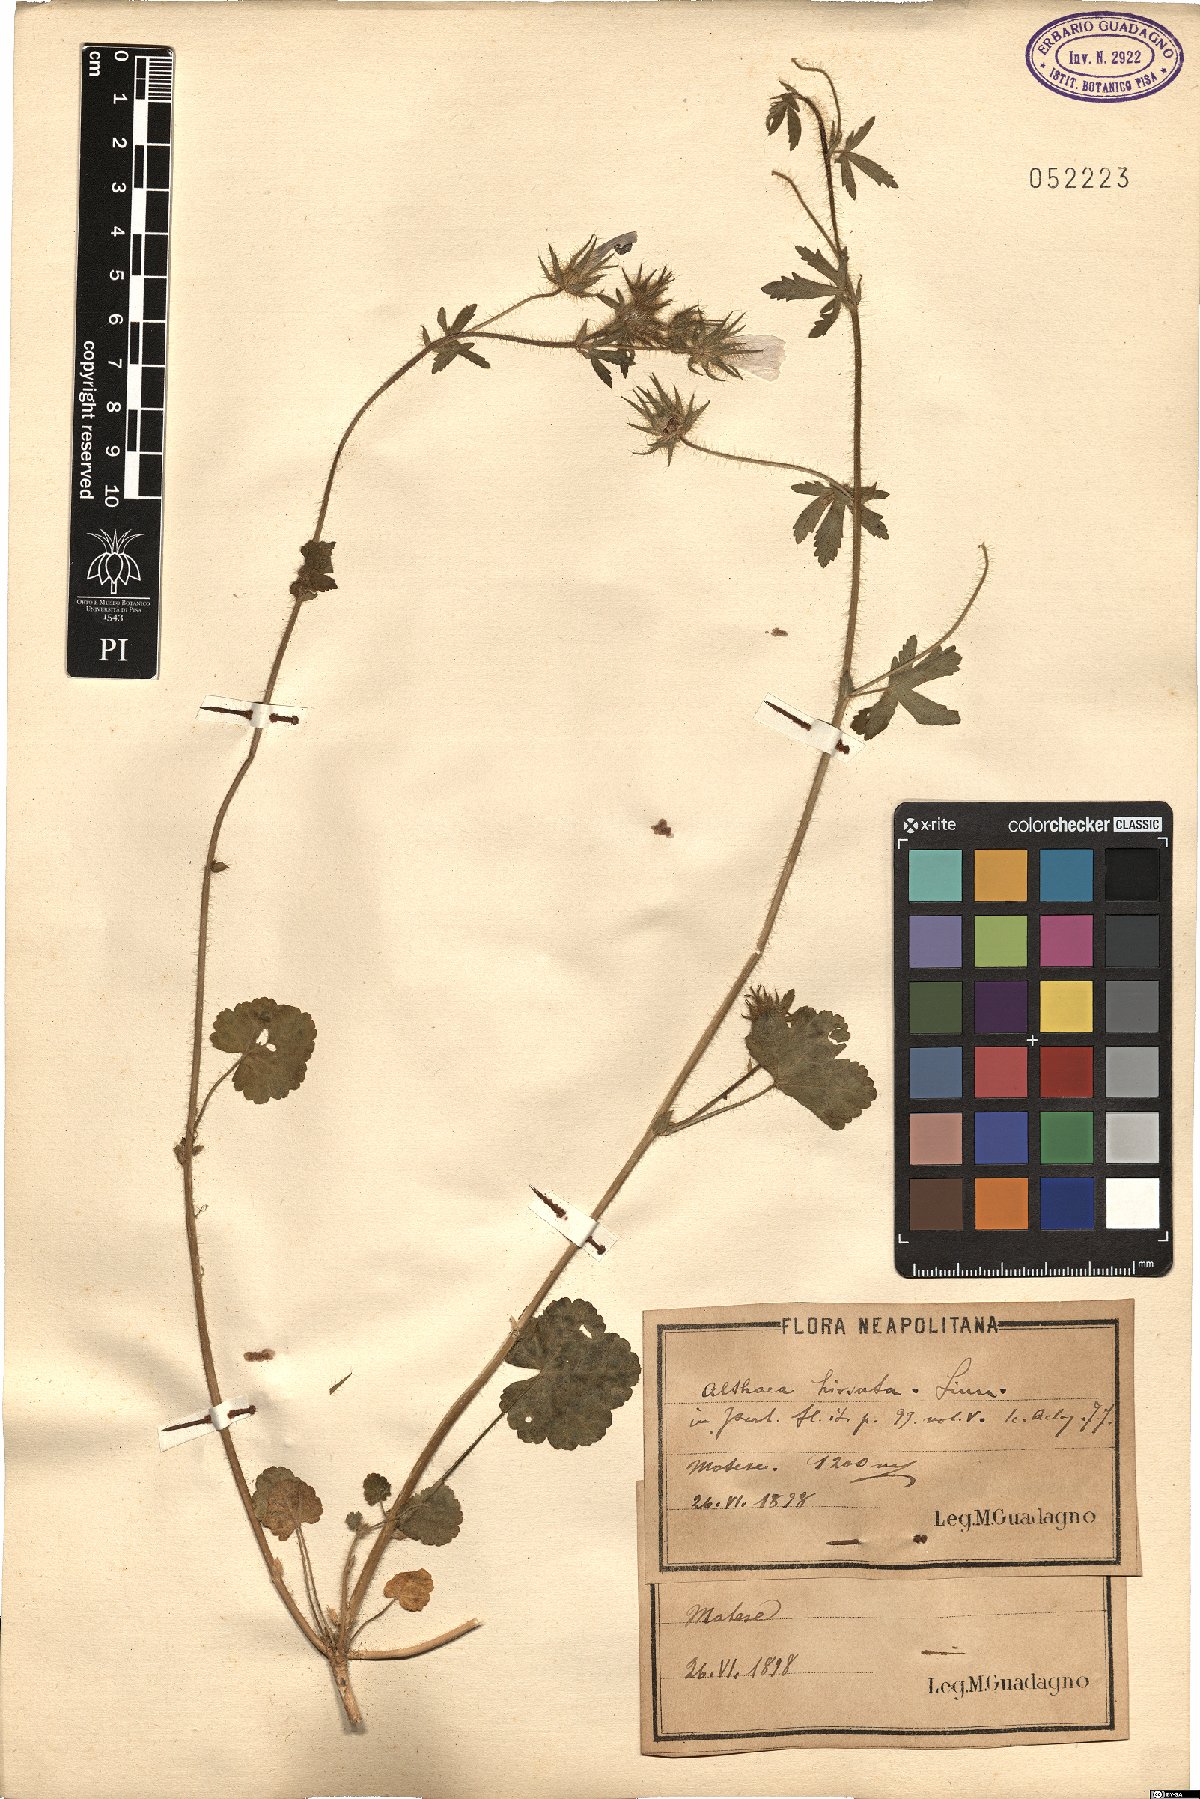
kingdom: Plantae
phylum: Tracheophyta
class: Magnoliopsida
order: Malvales
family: Malvaceae
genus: Althaea
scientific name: Althaea hirsuta
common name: Rough marsh-mallow
